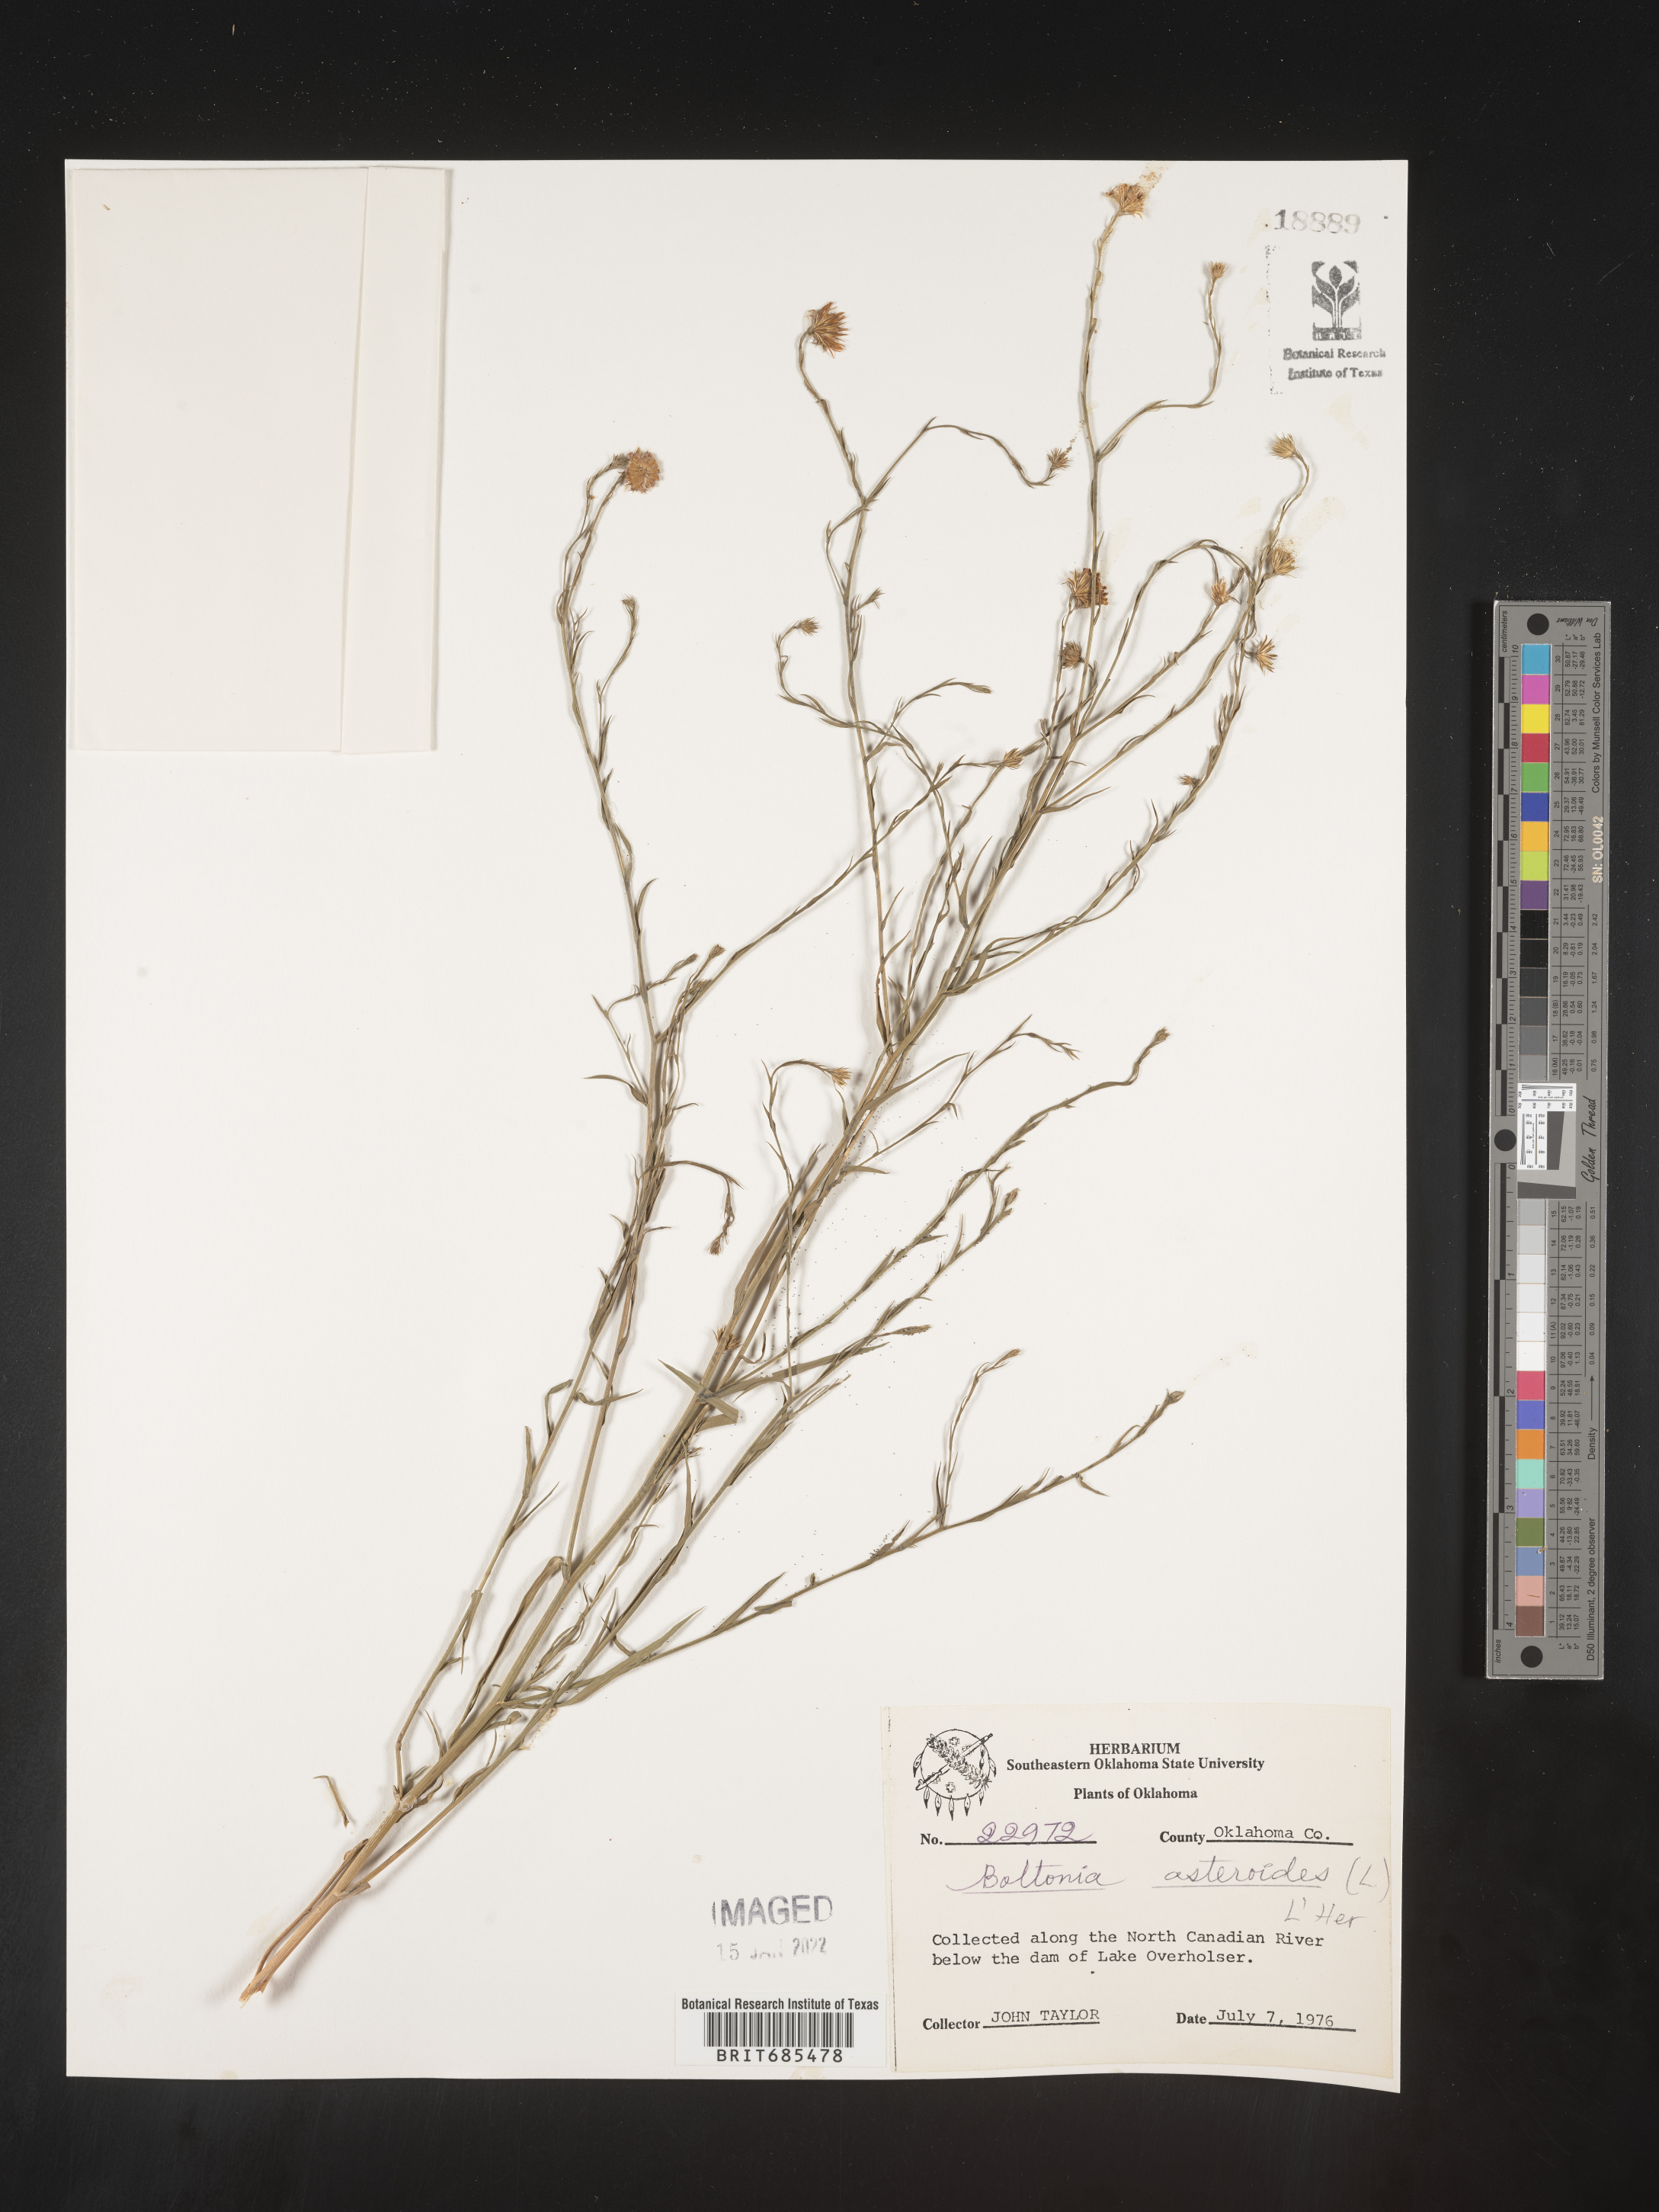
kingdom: Plantae
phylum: Tracheophyta
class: Magnoliopsida
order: Asterales
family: Asteraceae
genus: Boltonia
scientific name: Boltonia asteroides
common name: False chamomile
